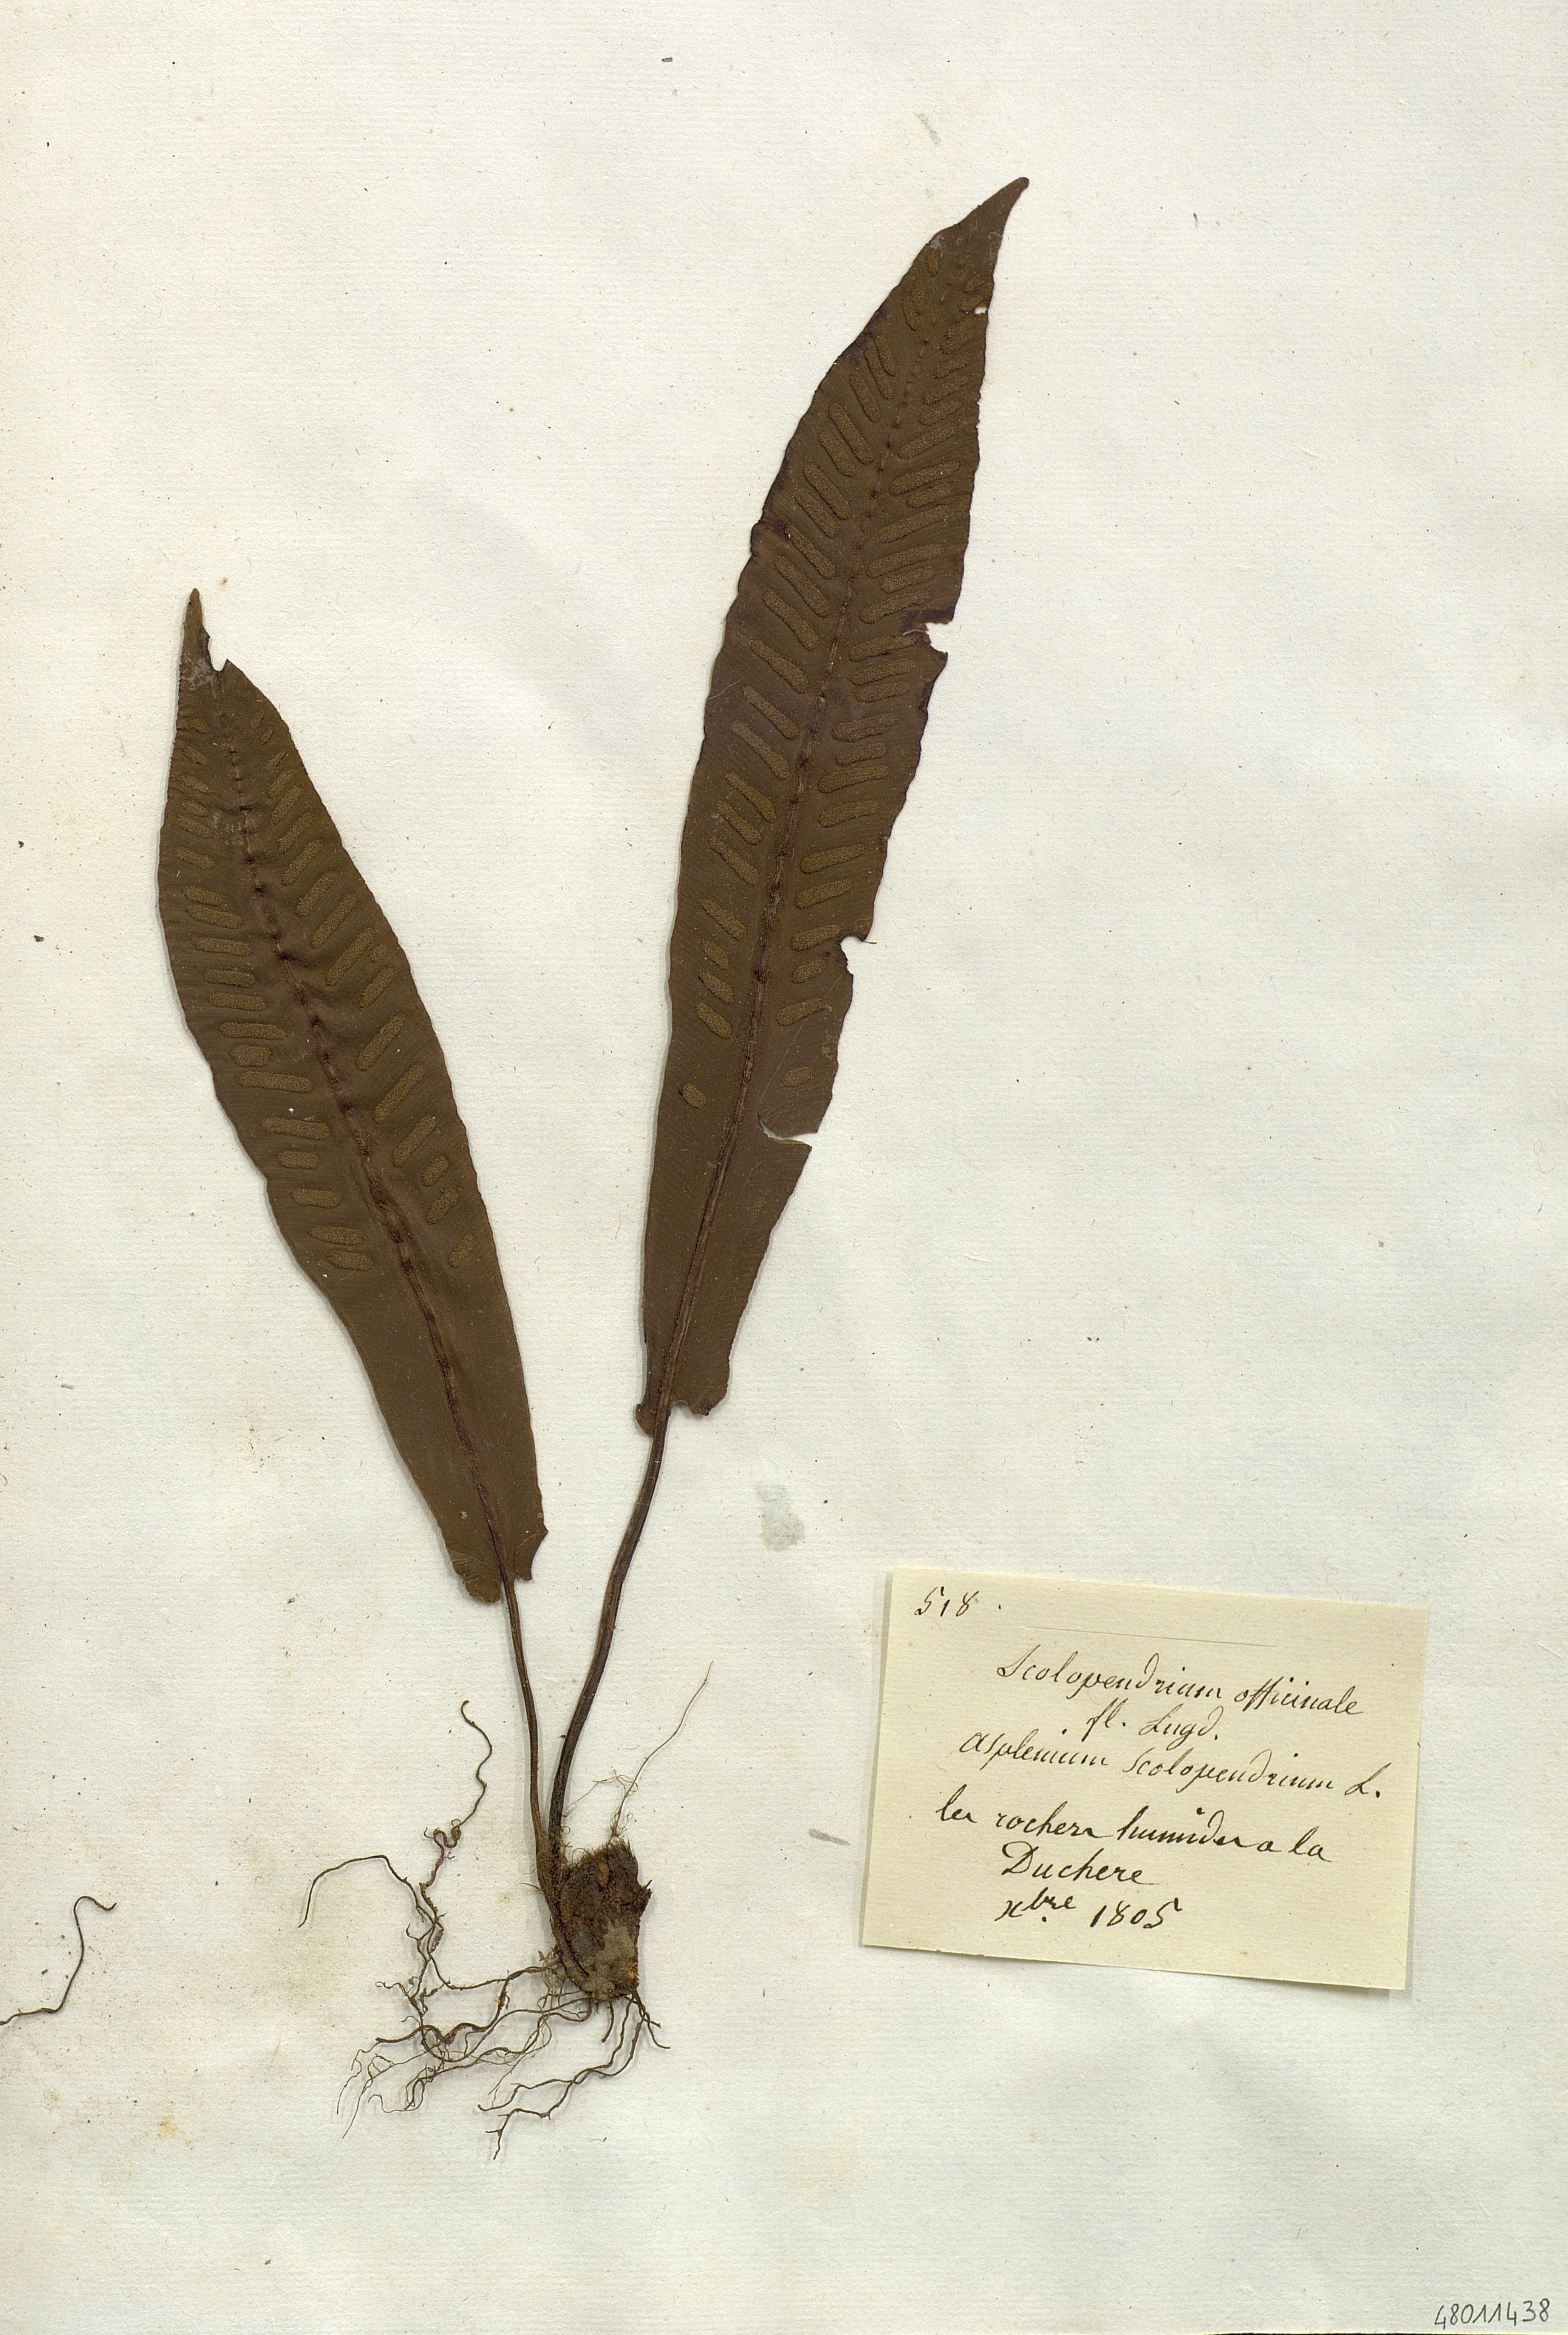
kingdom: Plantae
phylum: Tracheophyta
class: Polypodiopsida
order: Polypodiales
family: Aspleniaceae
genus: Asplenium
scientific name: Asplenium scolopendrium
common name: Hart's-tongue fern
